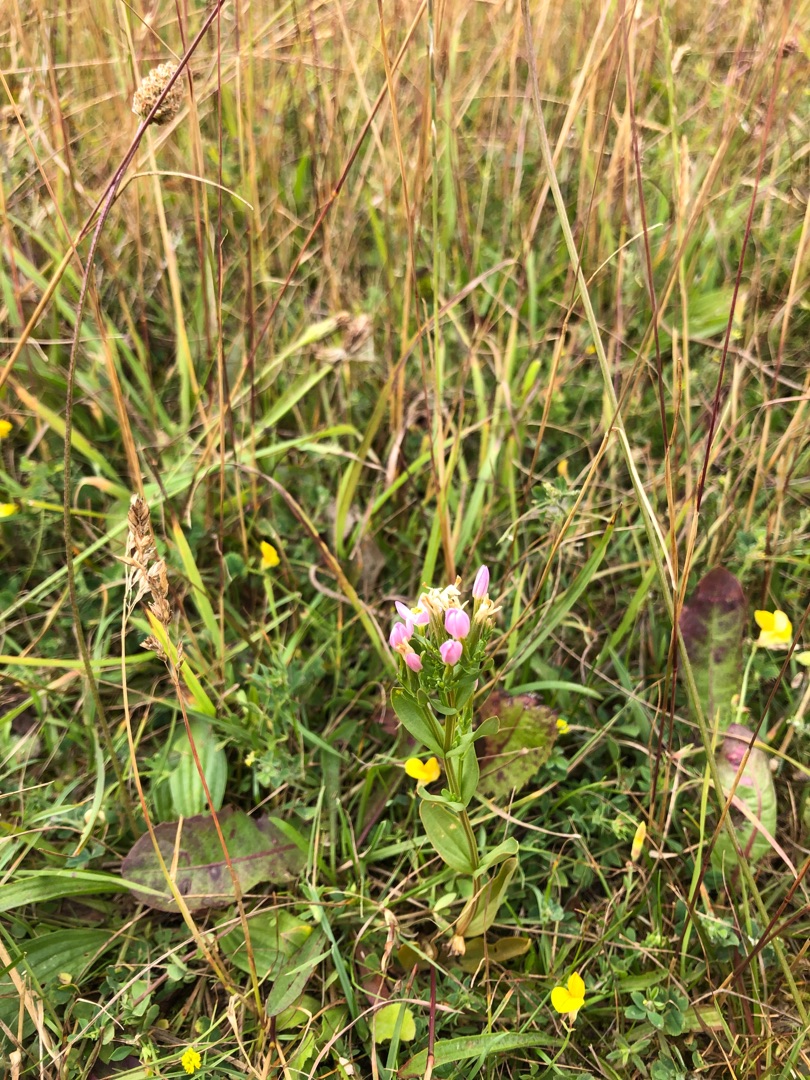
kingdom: Plantae
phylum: Tracheophyta
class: Magnoliopsida
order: Gentianales
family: Gentianaceae
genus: Centaurium
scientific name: Centaurium erythraea
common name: Mark-tusindgylden
